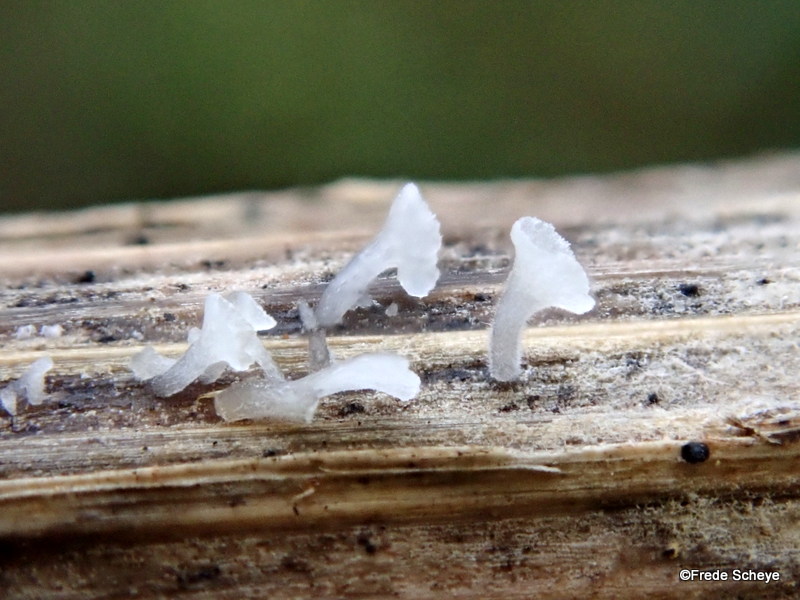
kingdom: Fungi
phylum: Basidiomycota
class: Agaricomycetes
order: Agaricales
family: Marasmiaceae
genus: Calyptella
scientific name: Calyptella
